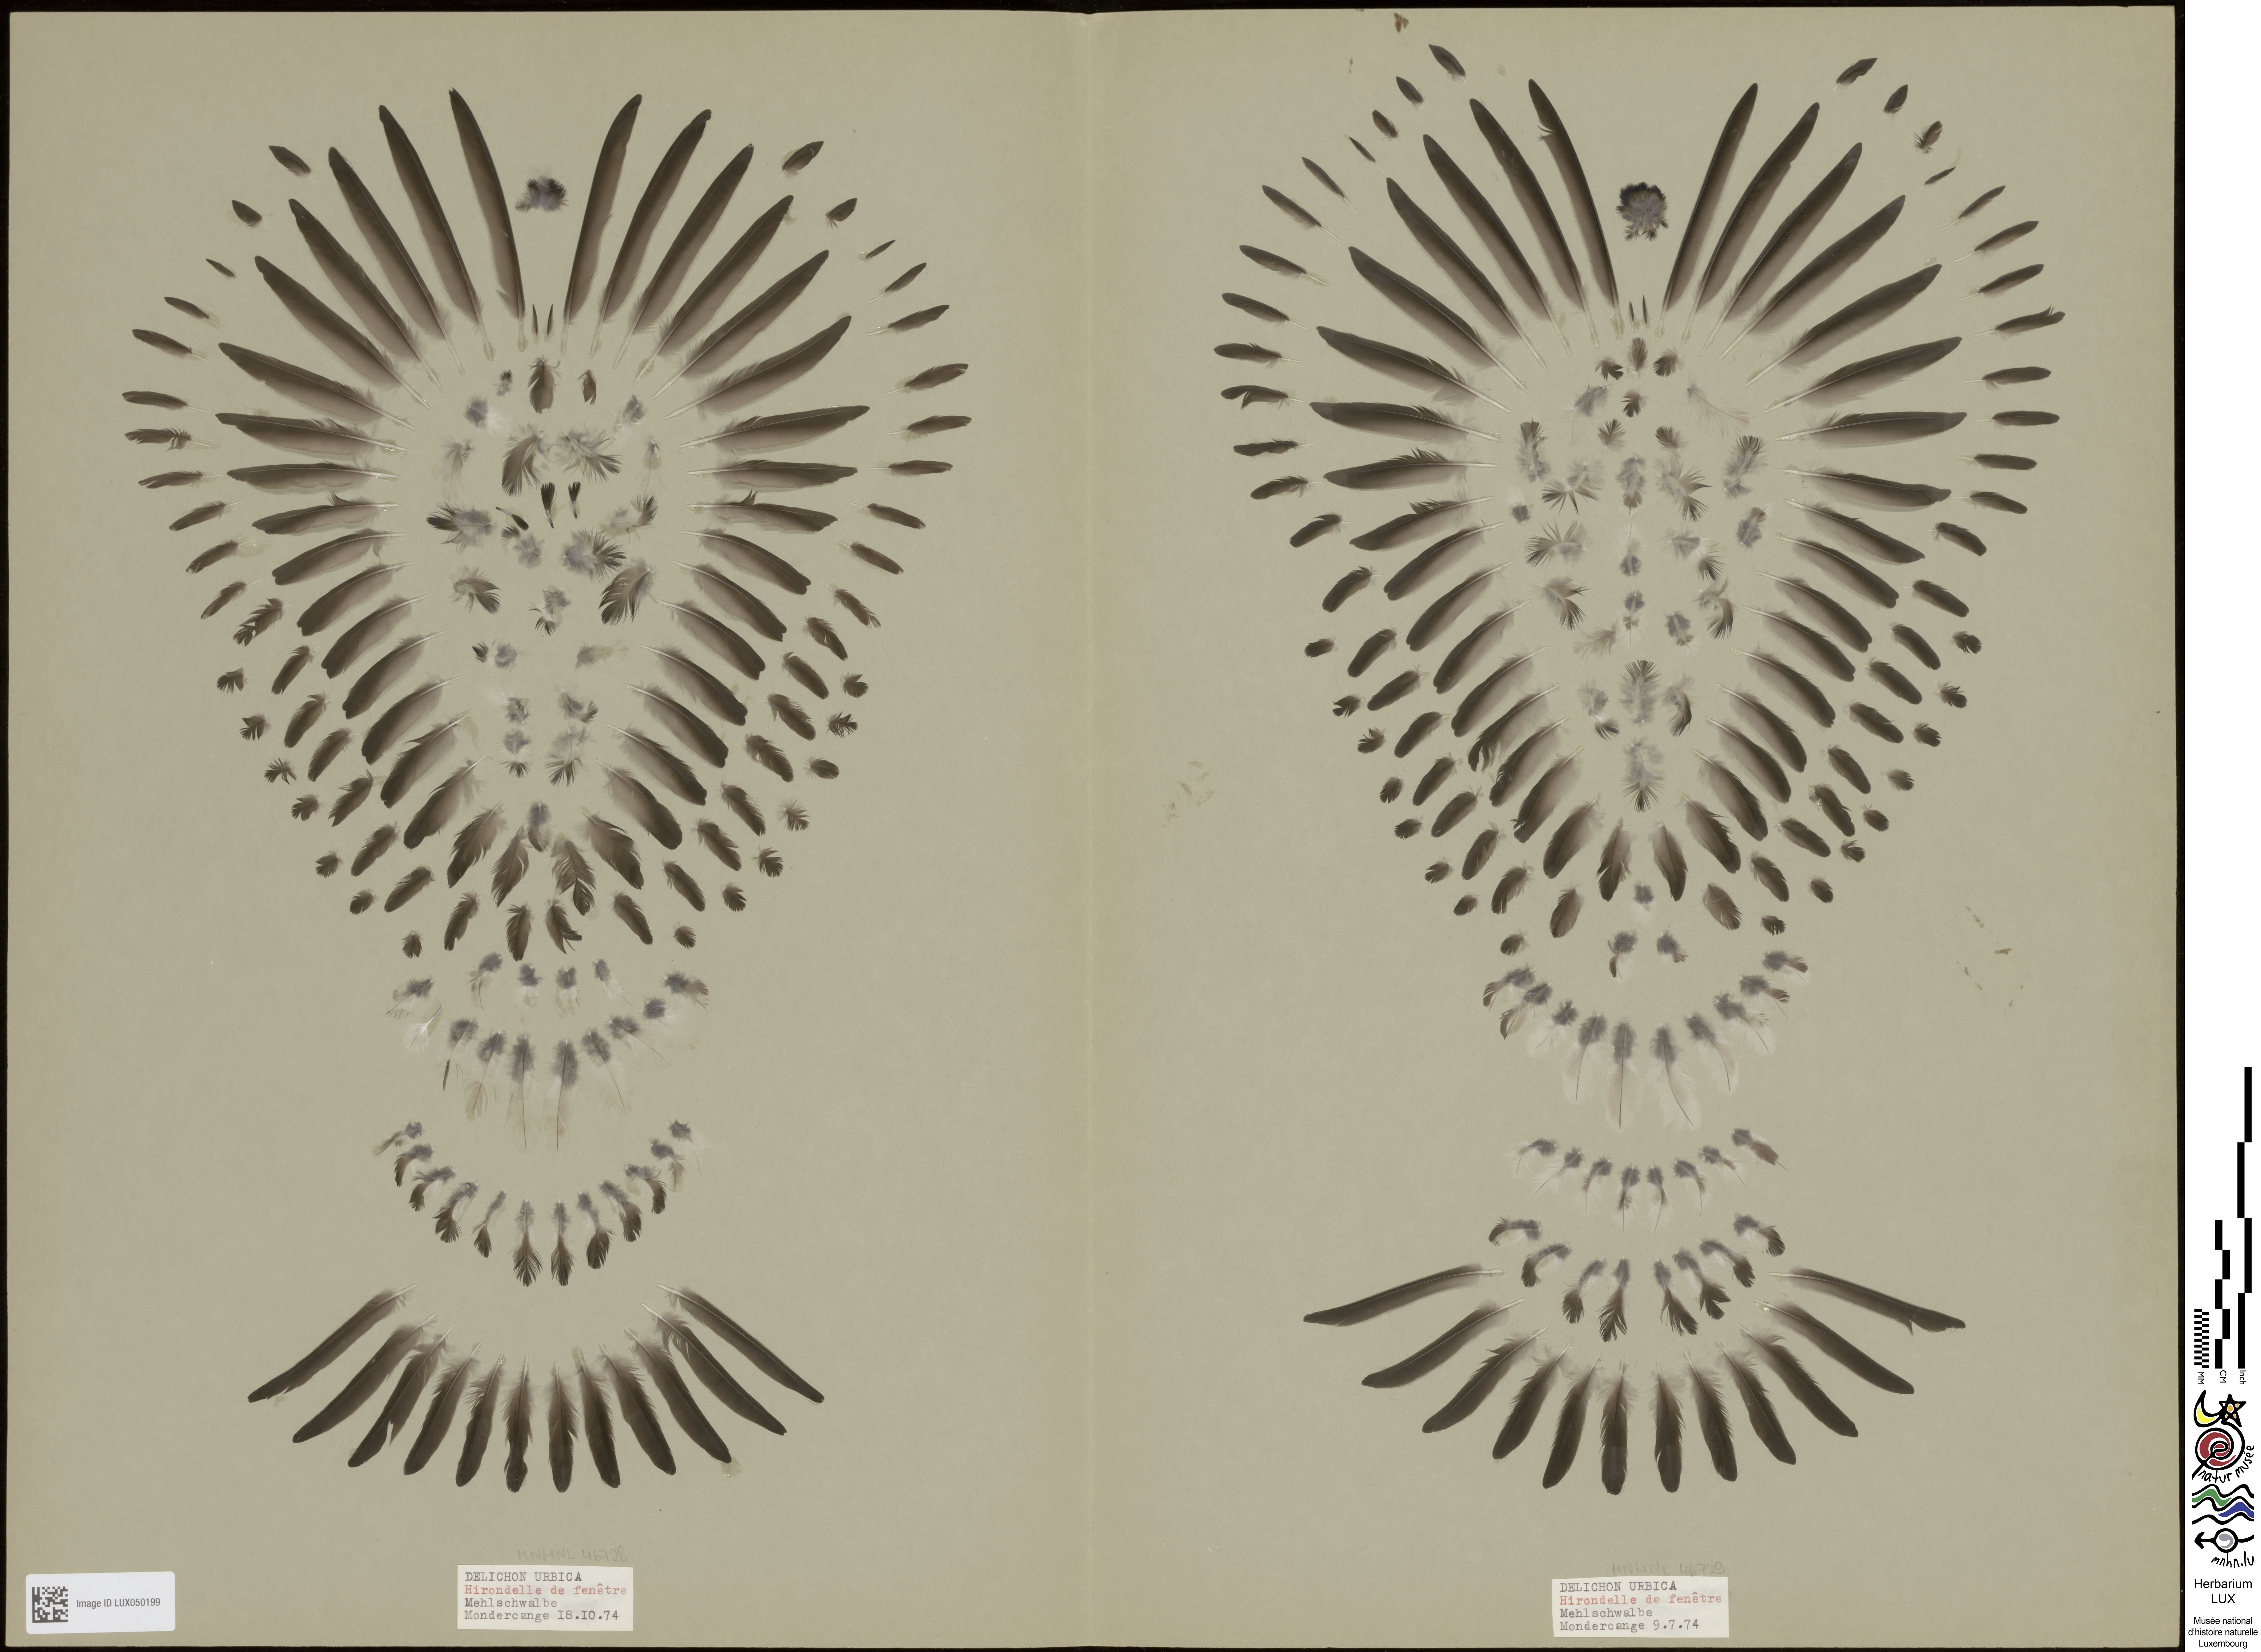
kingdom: Animalia
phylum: Chordata
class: Aves
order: Passeriformes
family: Hirundinidae
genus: Delichon
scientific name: Delichon urbicum
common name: Common house martin
